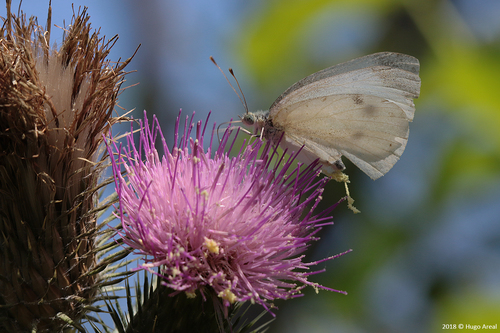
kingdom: Animalia
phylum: Arthropoda
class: Insecta
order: Lepidoptera
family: Pieridae
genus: Pieris
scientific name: Pieris rapae
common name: Small white
